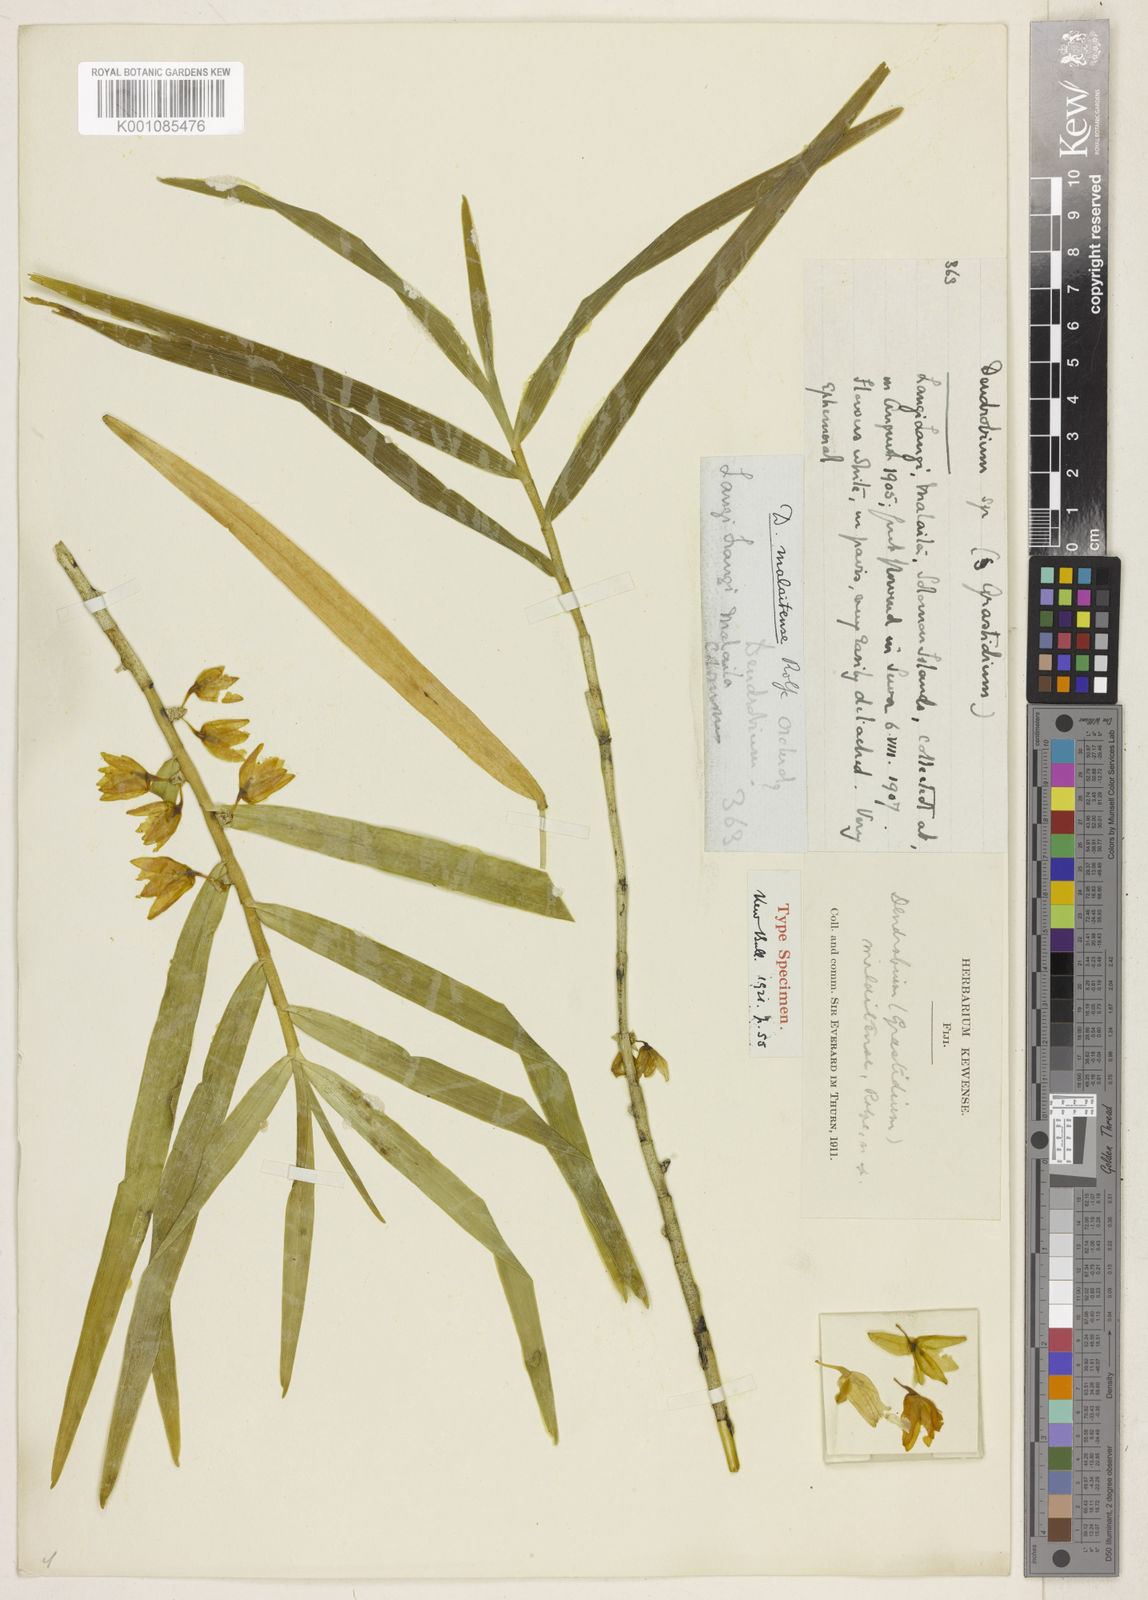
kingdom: Plantae
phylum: Tracheophyta
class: Liliopsida
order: Asparagales
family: Orchidaceae
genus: Dendrobium
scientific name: Dendrobium sladei
